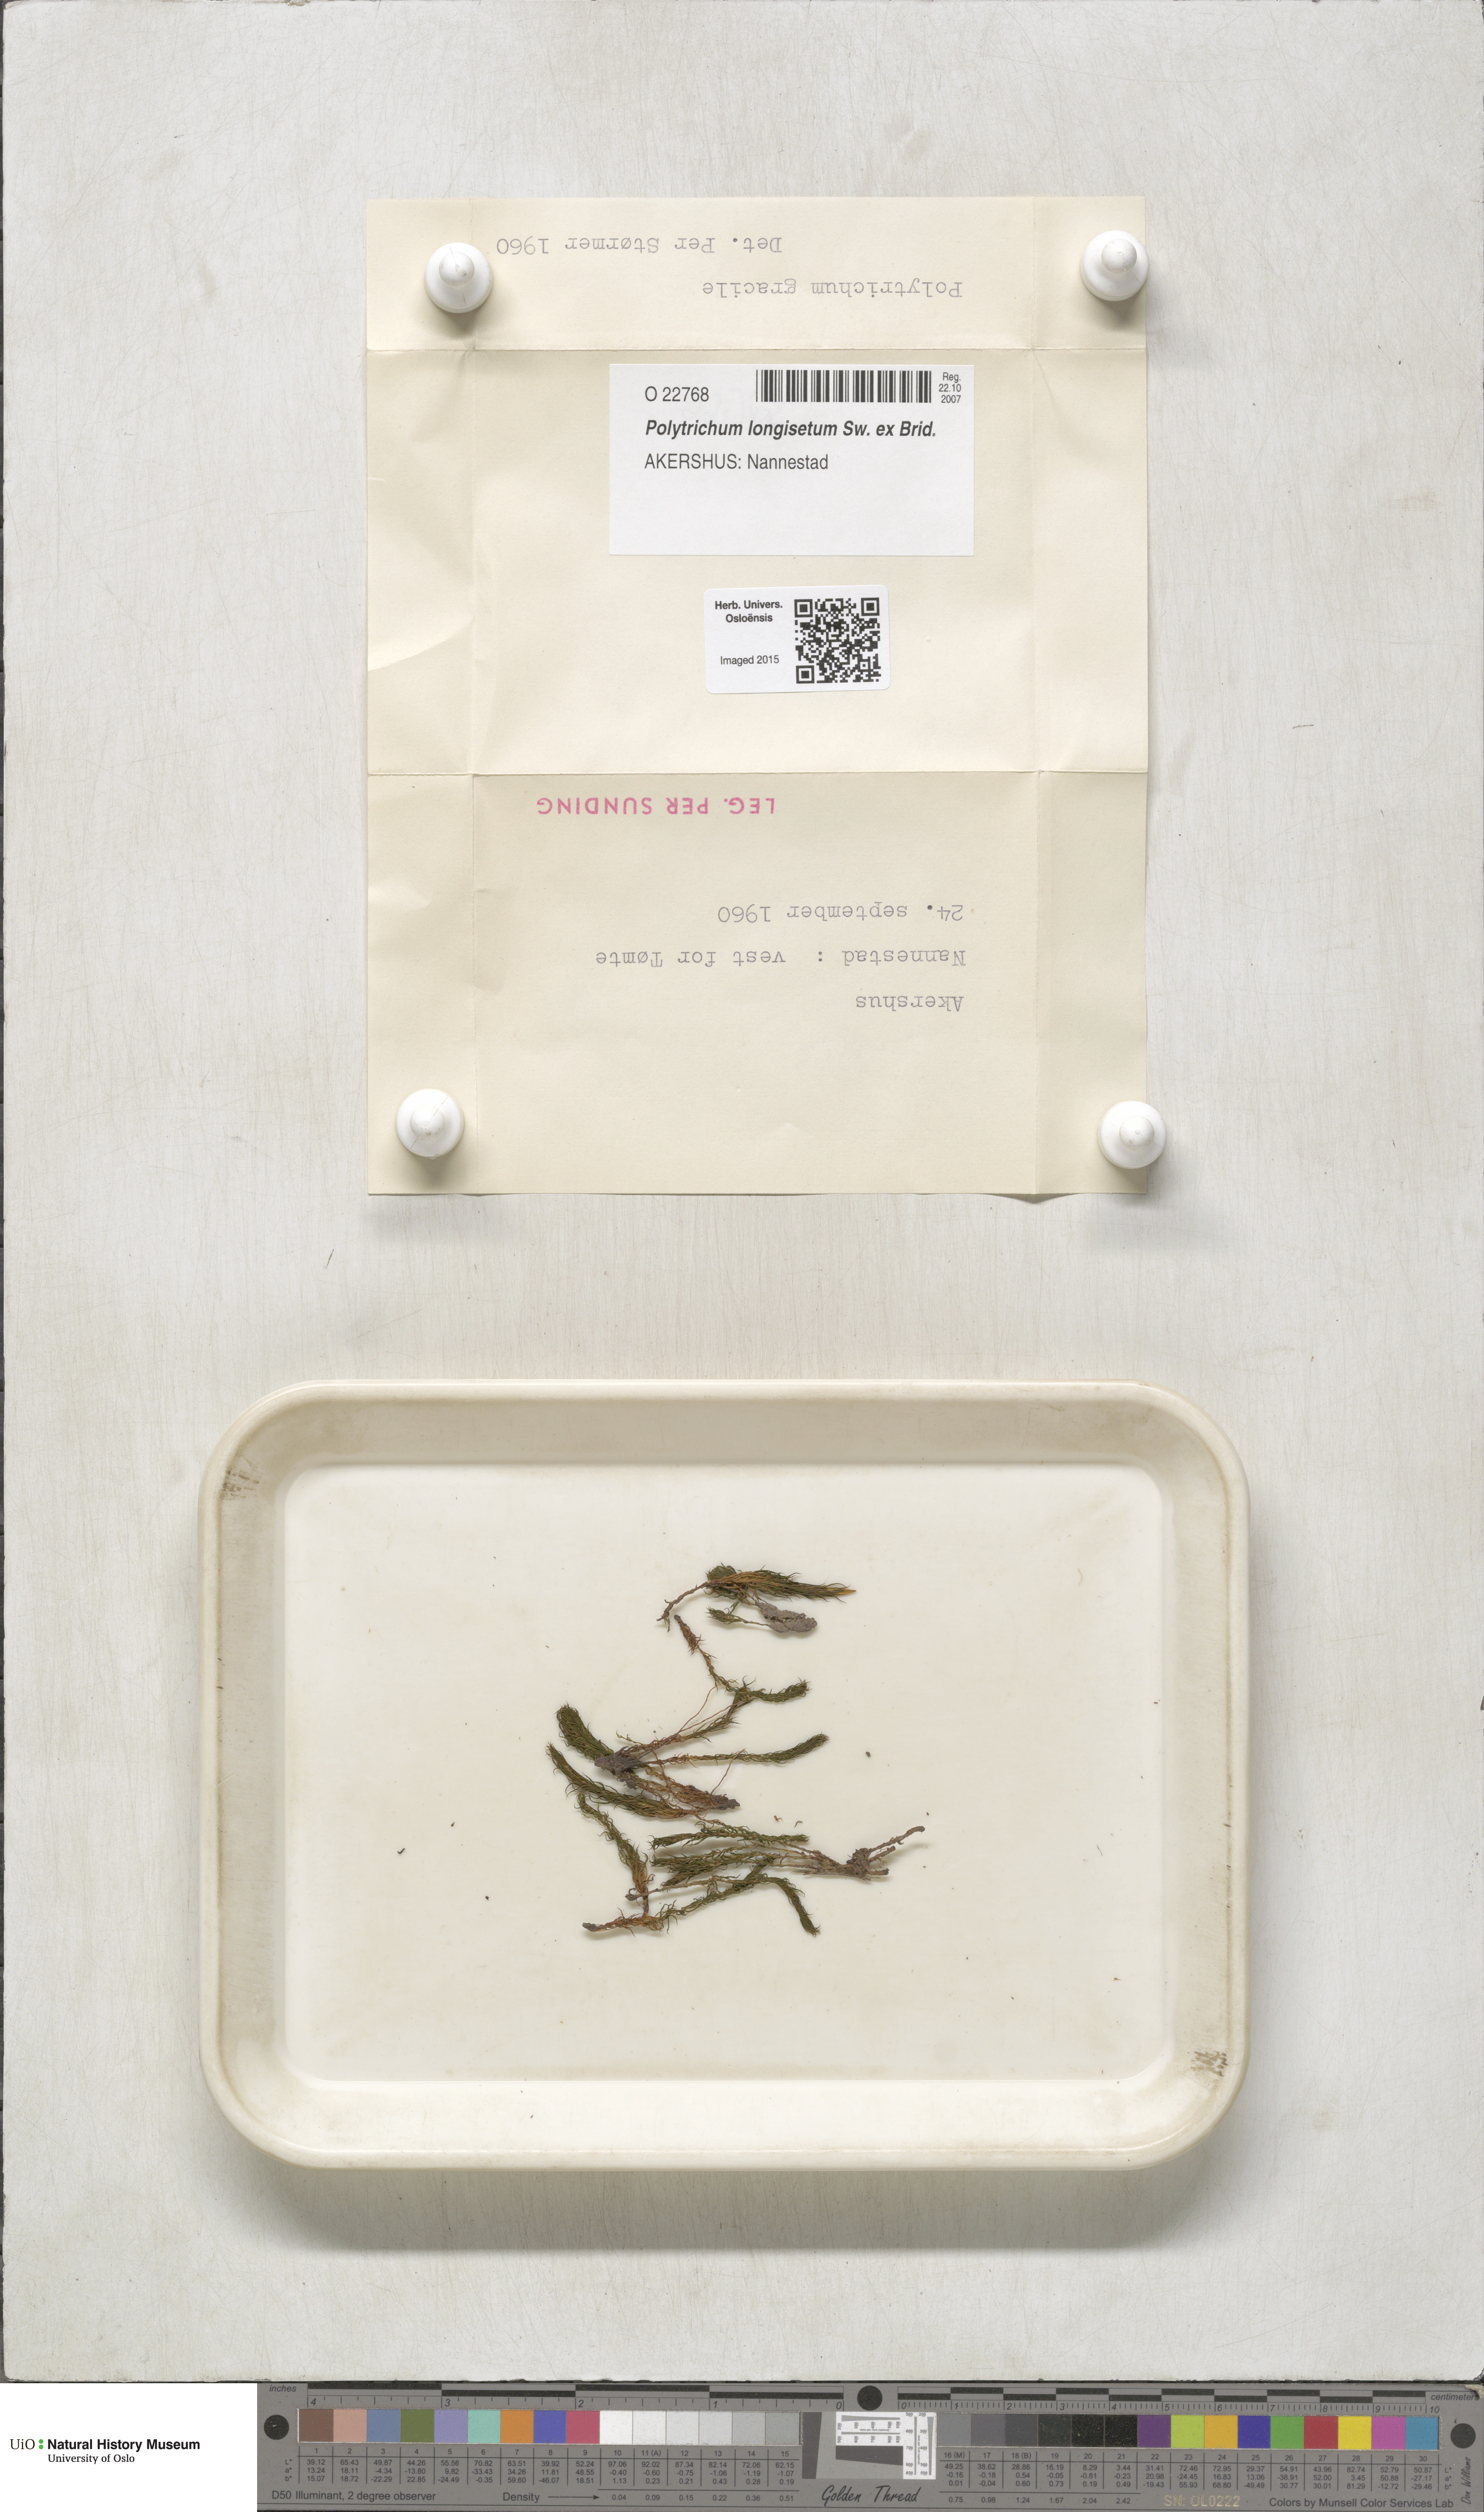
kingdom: Plantae
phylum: Bryophyta
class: Polytrichopsida
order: Polytrichales
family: Polytrichaceae
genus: Polytrichum
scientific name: Polytrichum longisetum
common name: Long-stalked haircap moss
